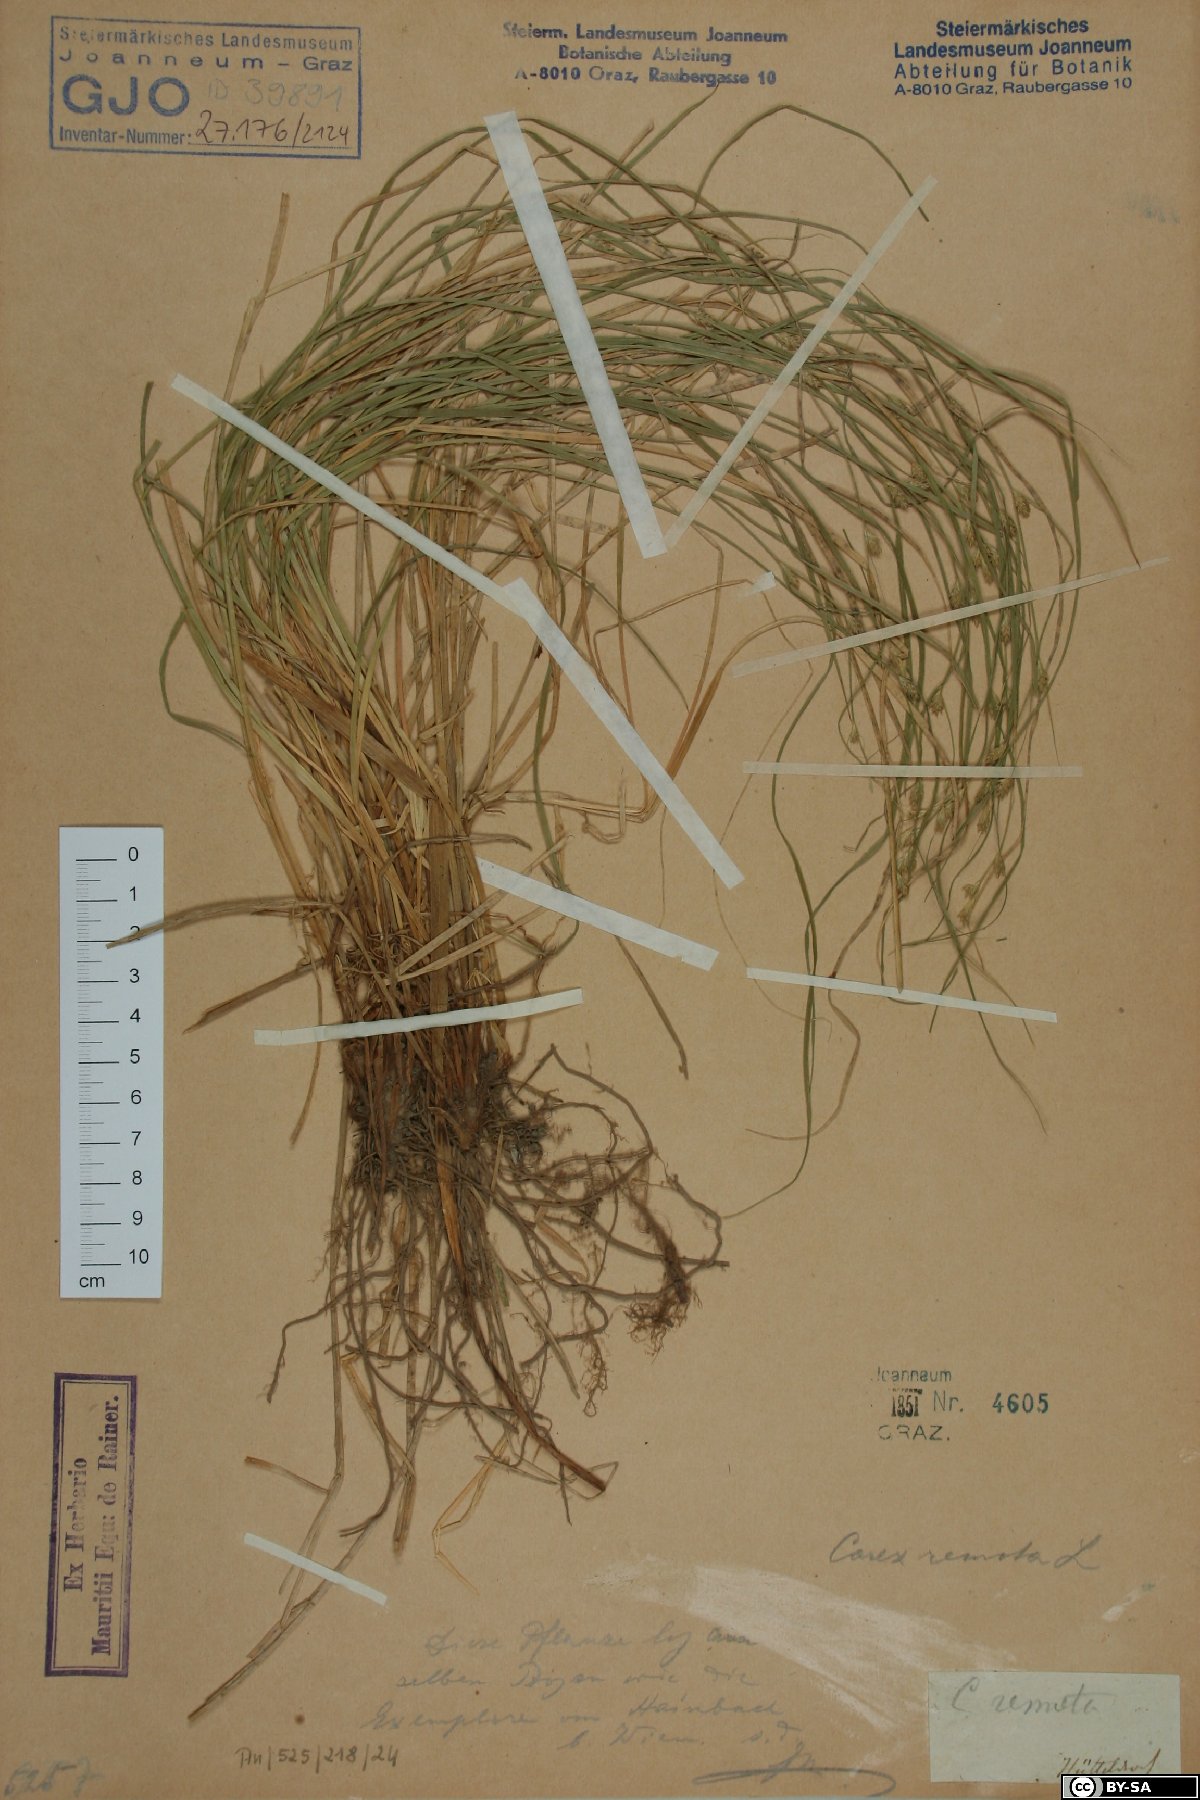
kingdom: Plantae
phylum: Tracheophyta
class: Liliopsida
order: Poales
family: Cyperaceae
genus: Carex
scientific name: Carex remota
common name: Remote sedge
